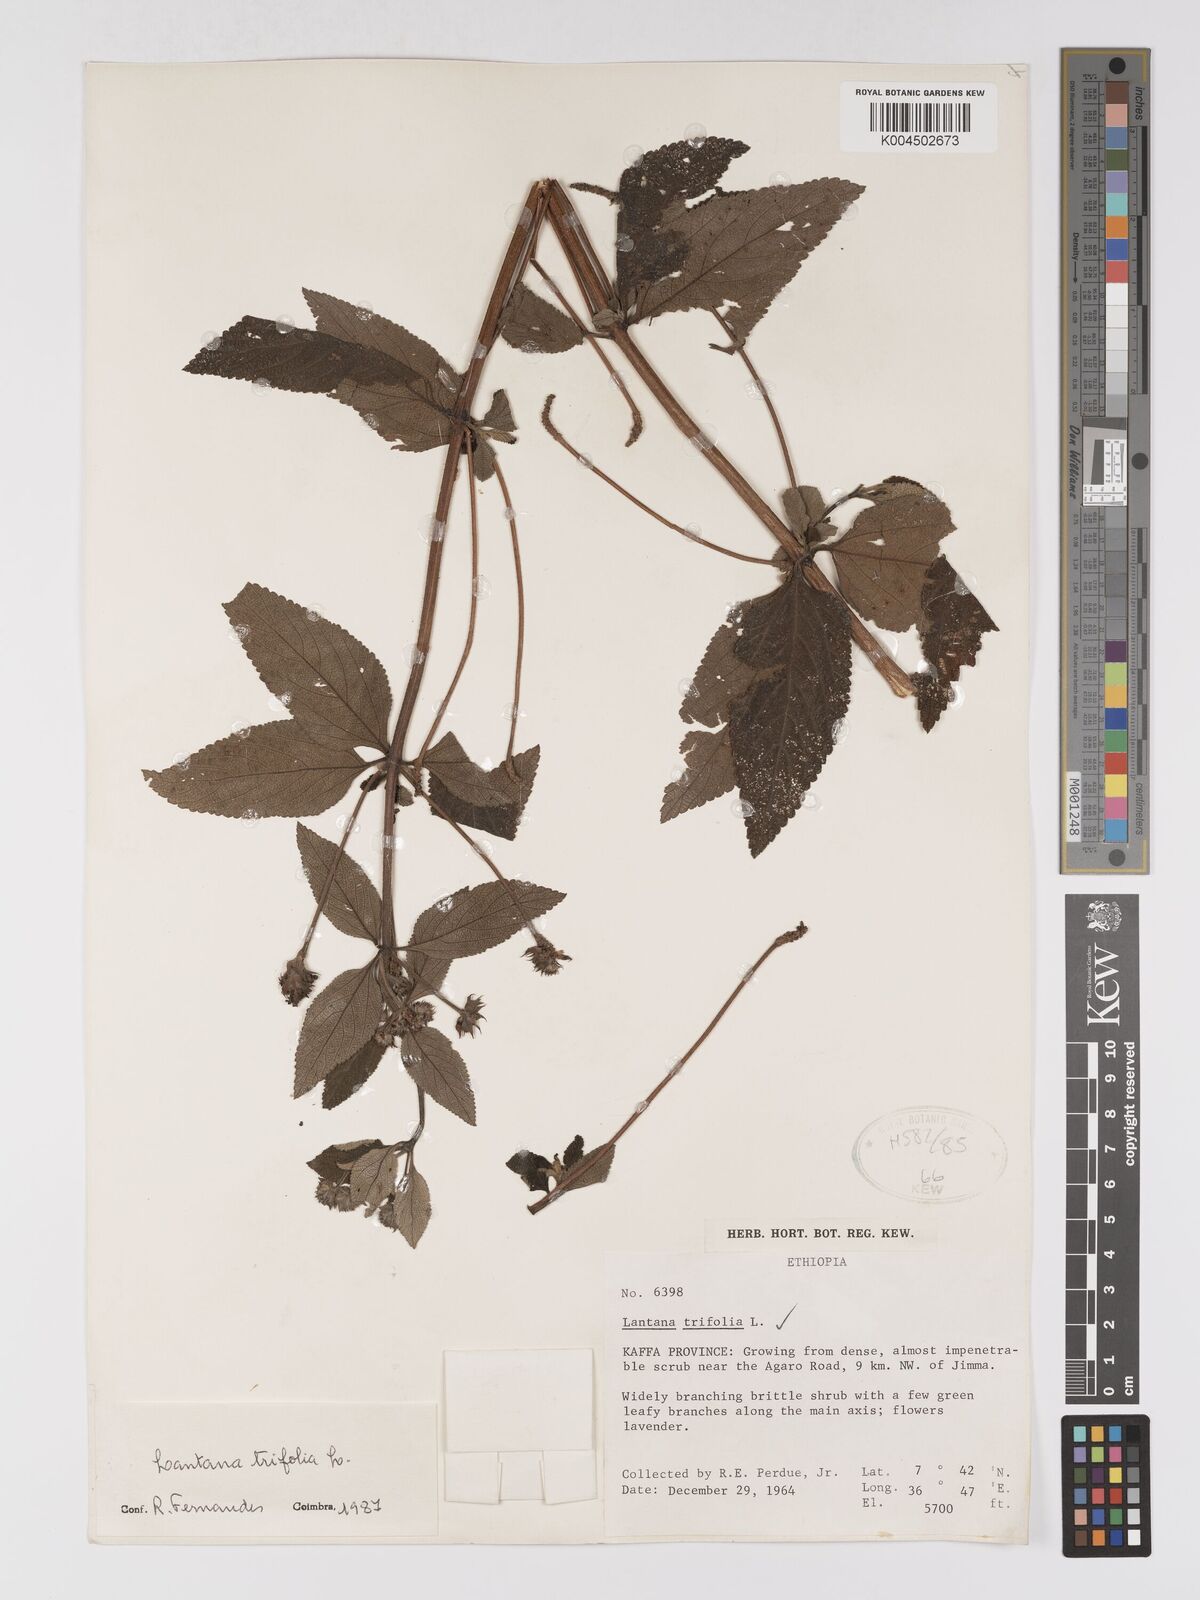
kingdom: Plantae
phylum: Tracheophyta
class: Magnoliopsida
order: Lamiales
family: Verbenaceae
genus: Lantana
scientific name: Lantana trifolia
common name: Sweet-sage
